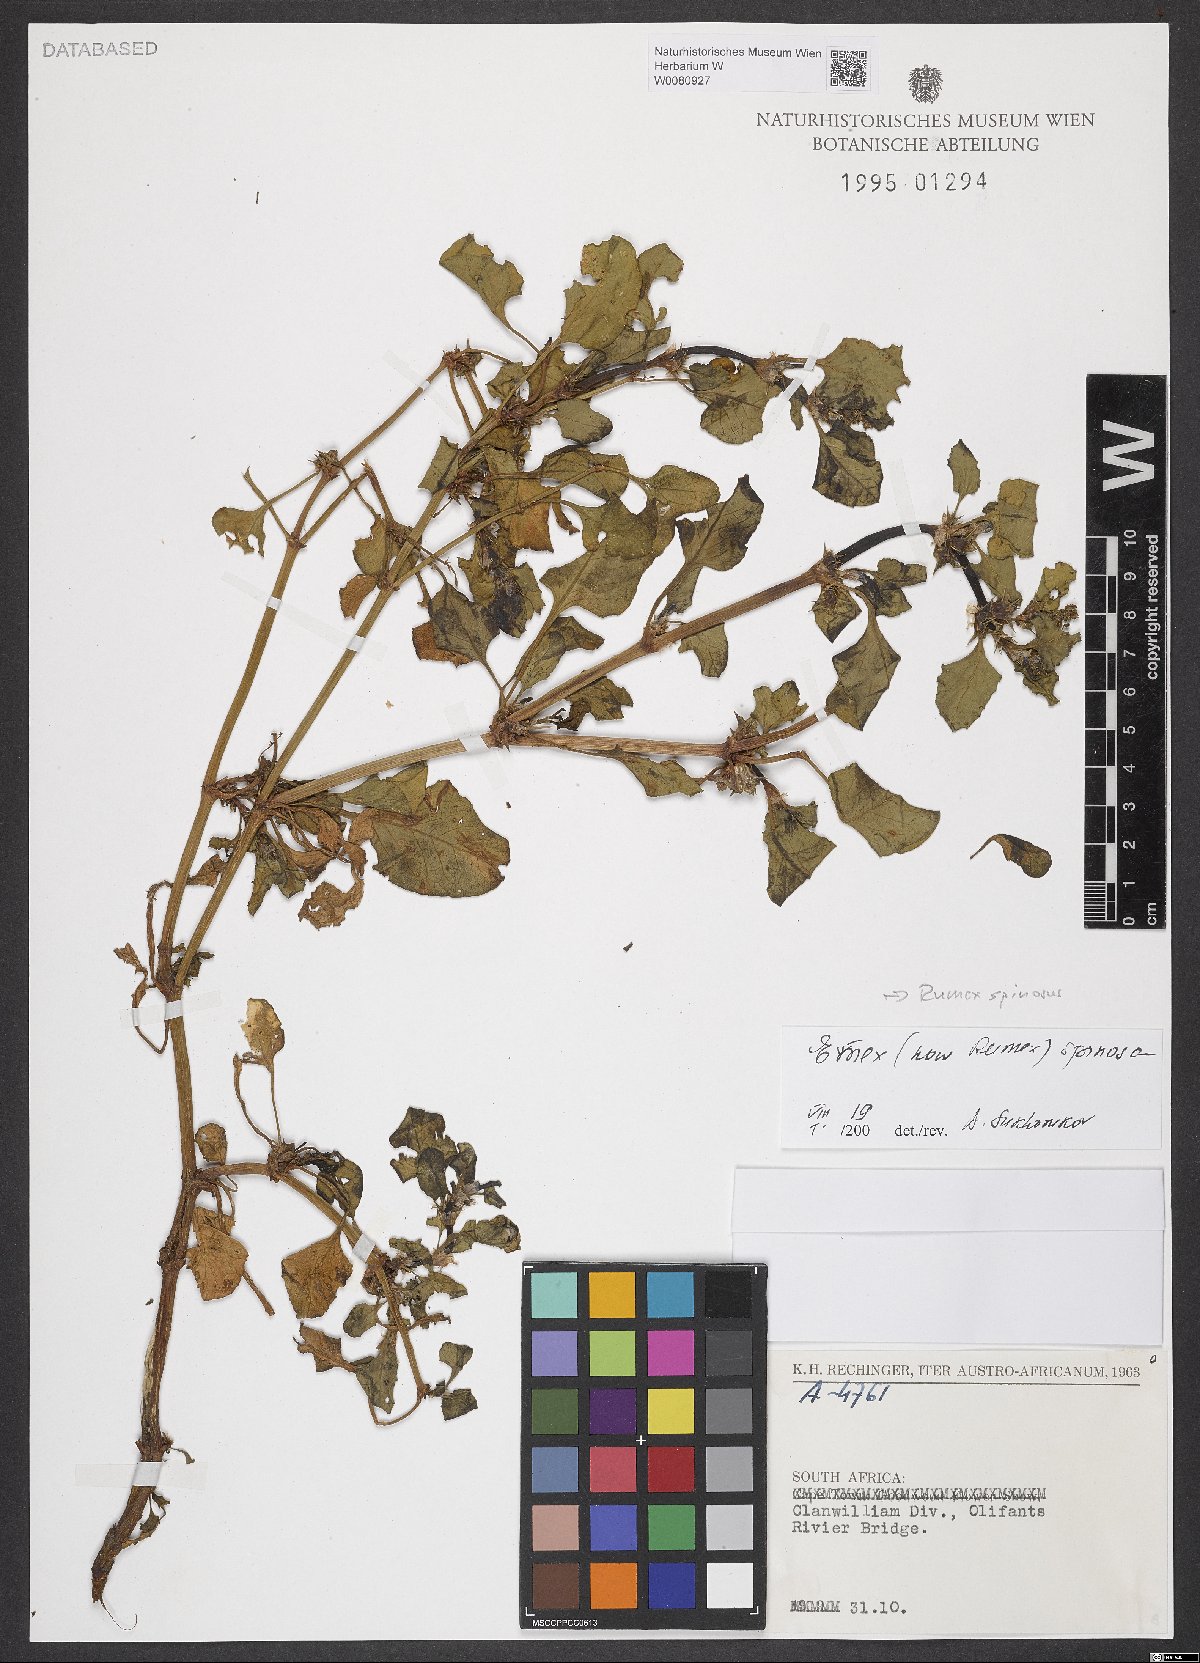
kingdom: Plantae
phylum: Tracheophyta
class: Magnoliopsida
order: Caryophyllales
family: Polygonaceae
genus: Rumex
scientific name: Rumex spinosus
